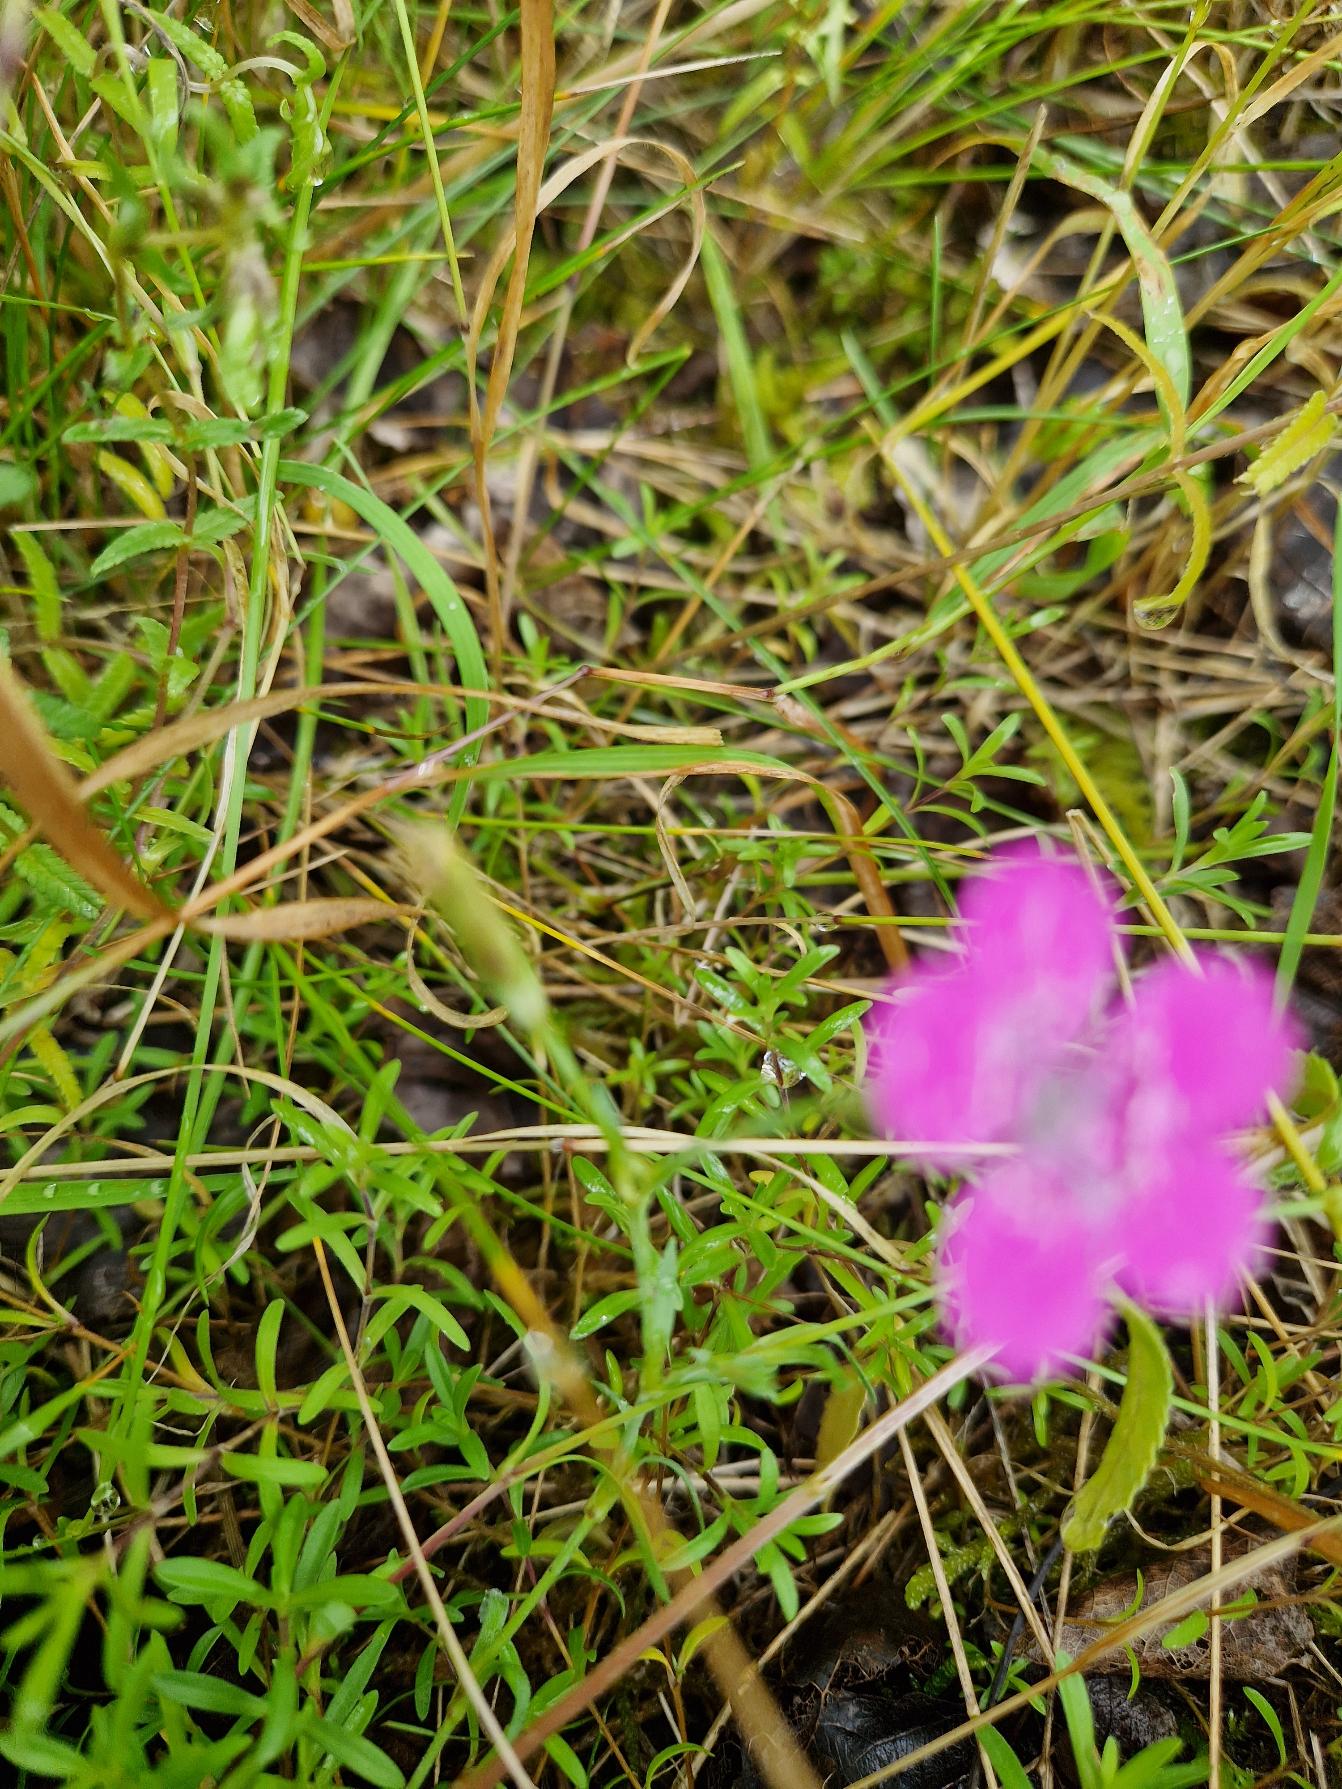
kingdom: Plantae
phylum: Tracheophyta
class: Magnoliopsida
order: Caryophyllales
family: Caryophyllaceae
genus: Dianthus
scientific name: Dianthus deltoides
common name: Bakke-nellike
